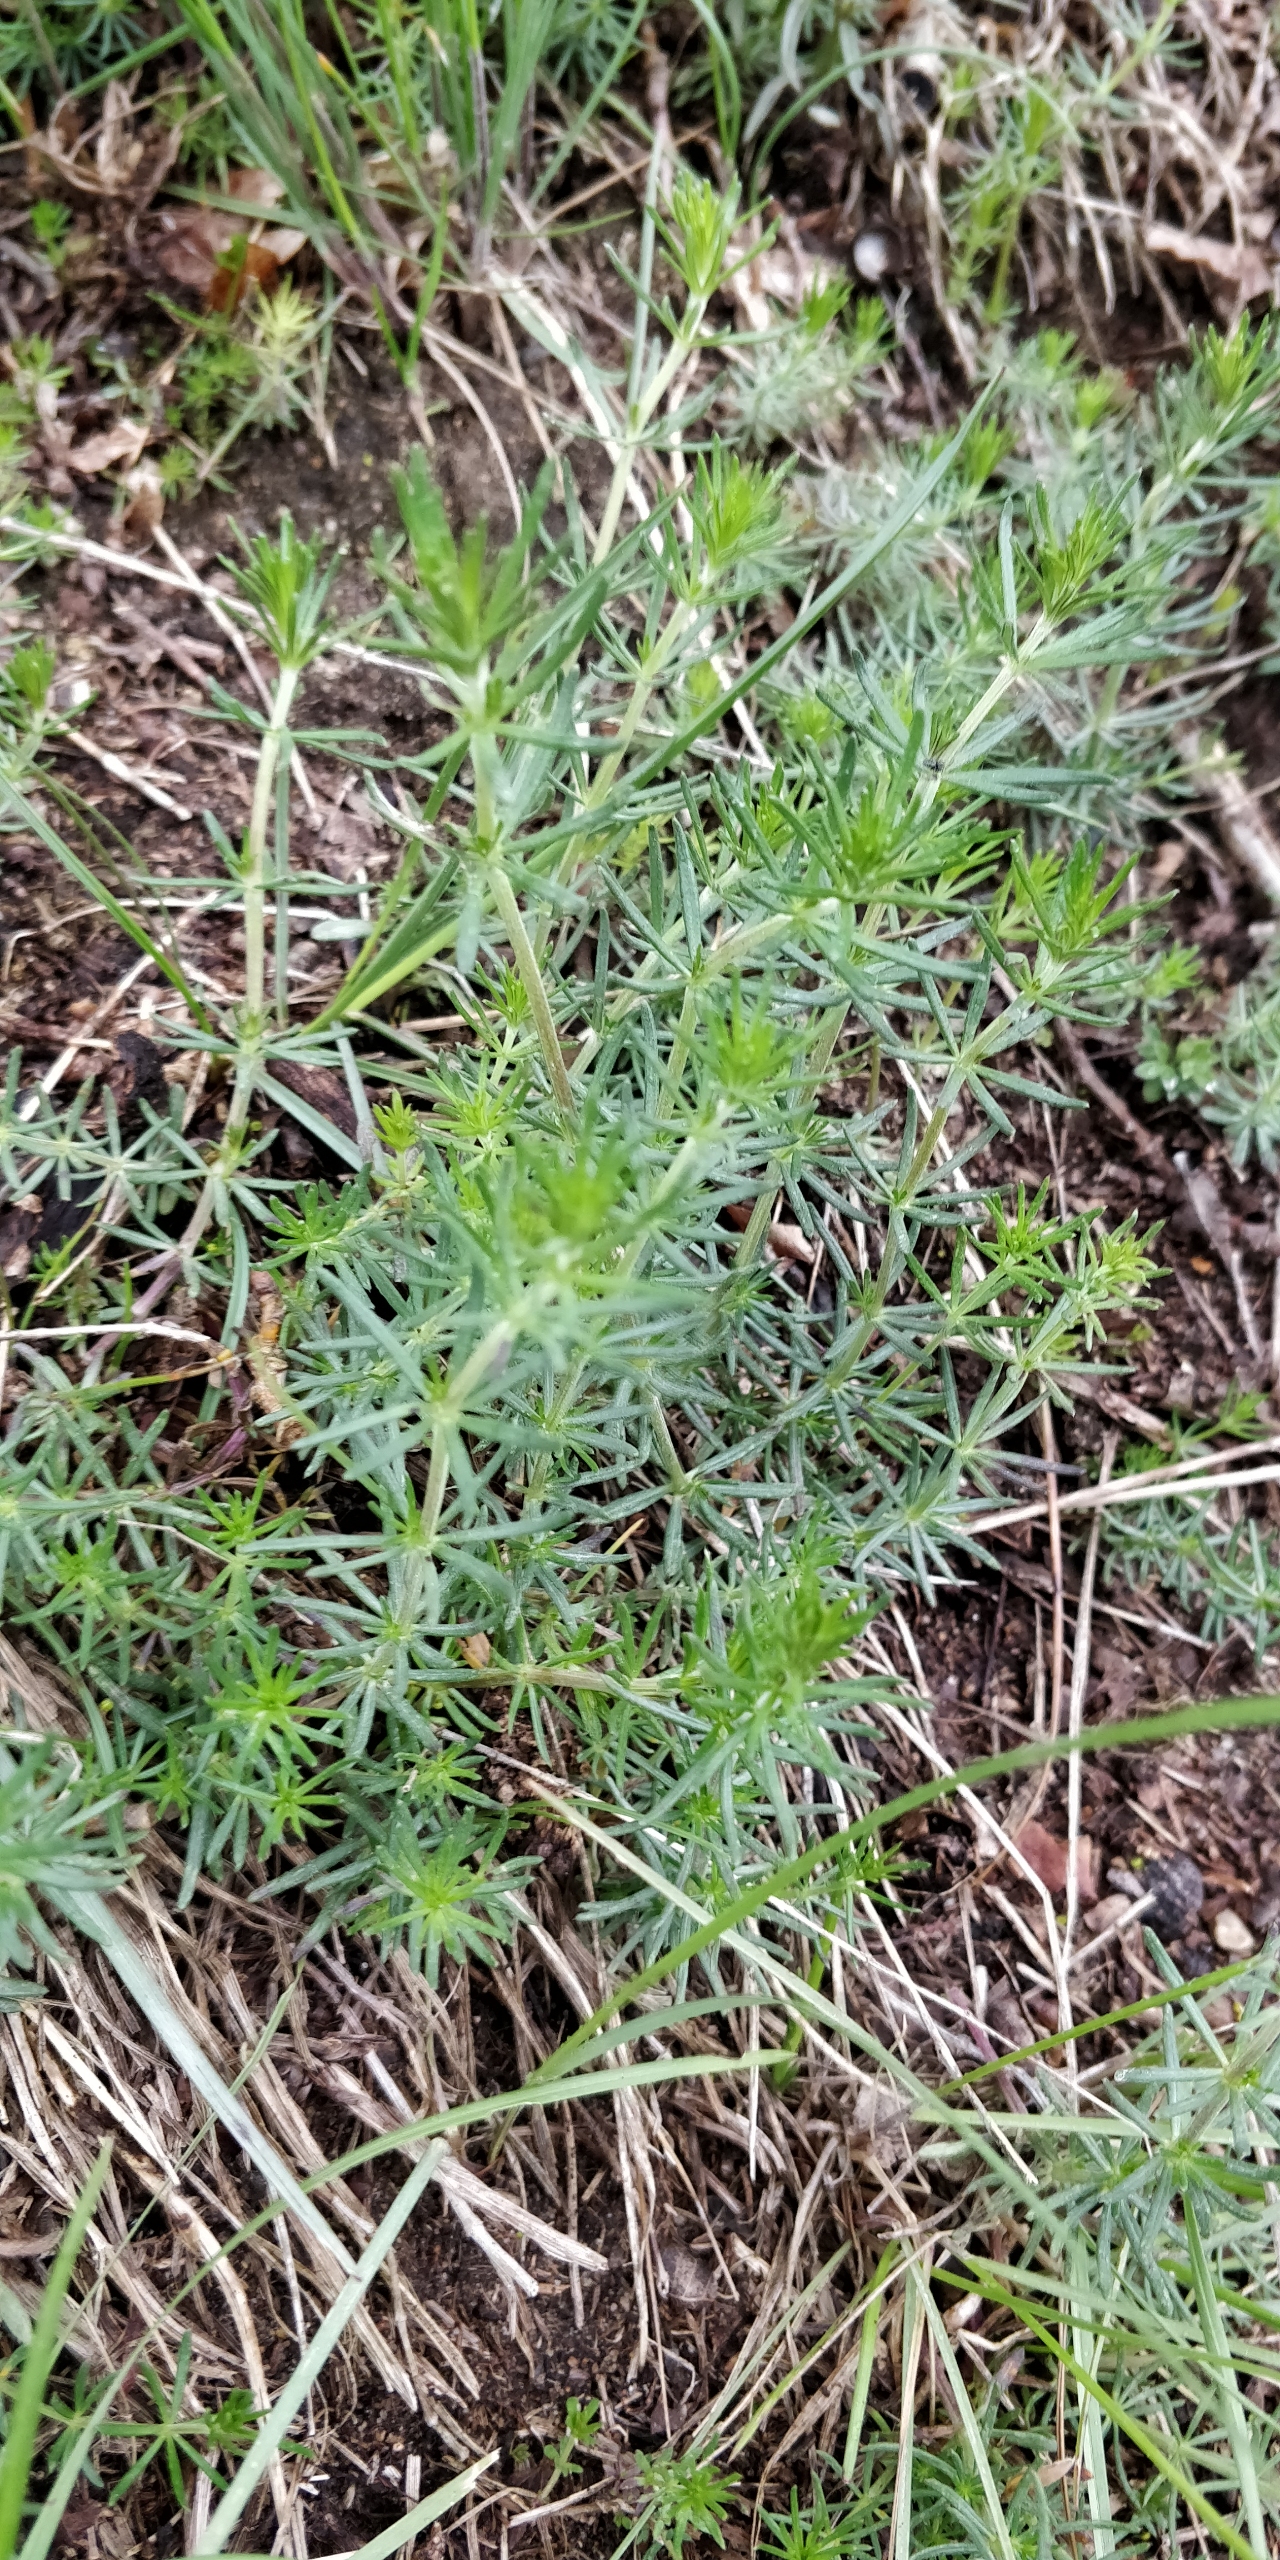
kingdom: Plantae
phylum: Tracheophyta
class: Magnoliopsida
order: Gentianales
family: Rubiaceae
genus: Galium
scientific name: Galium verum
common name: Gul snerre
